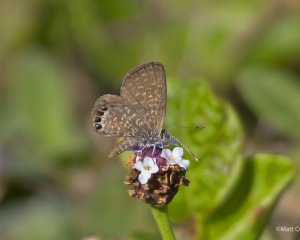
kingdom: Animalia
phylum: Arthropoda
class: Insecta
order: Lepidoptera
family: Lycaenidae
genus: Brephidium
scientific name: Brephidium isophthalma
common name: Eastern Pygmy-Blue
